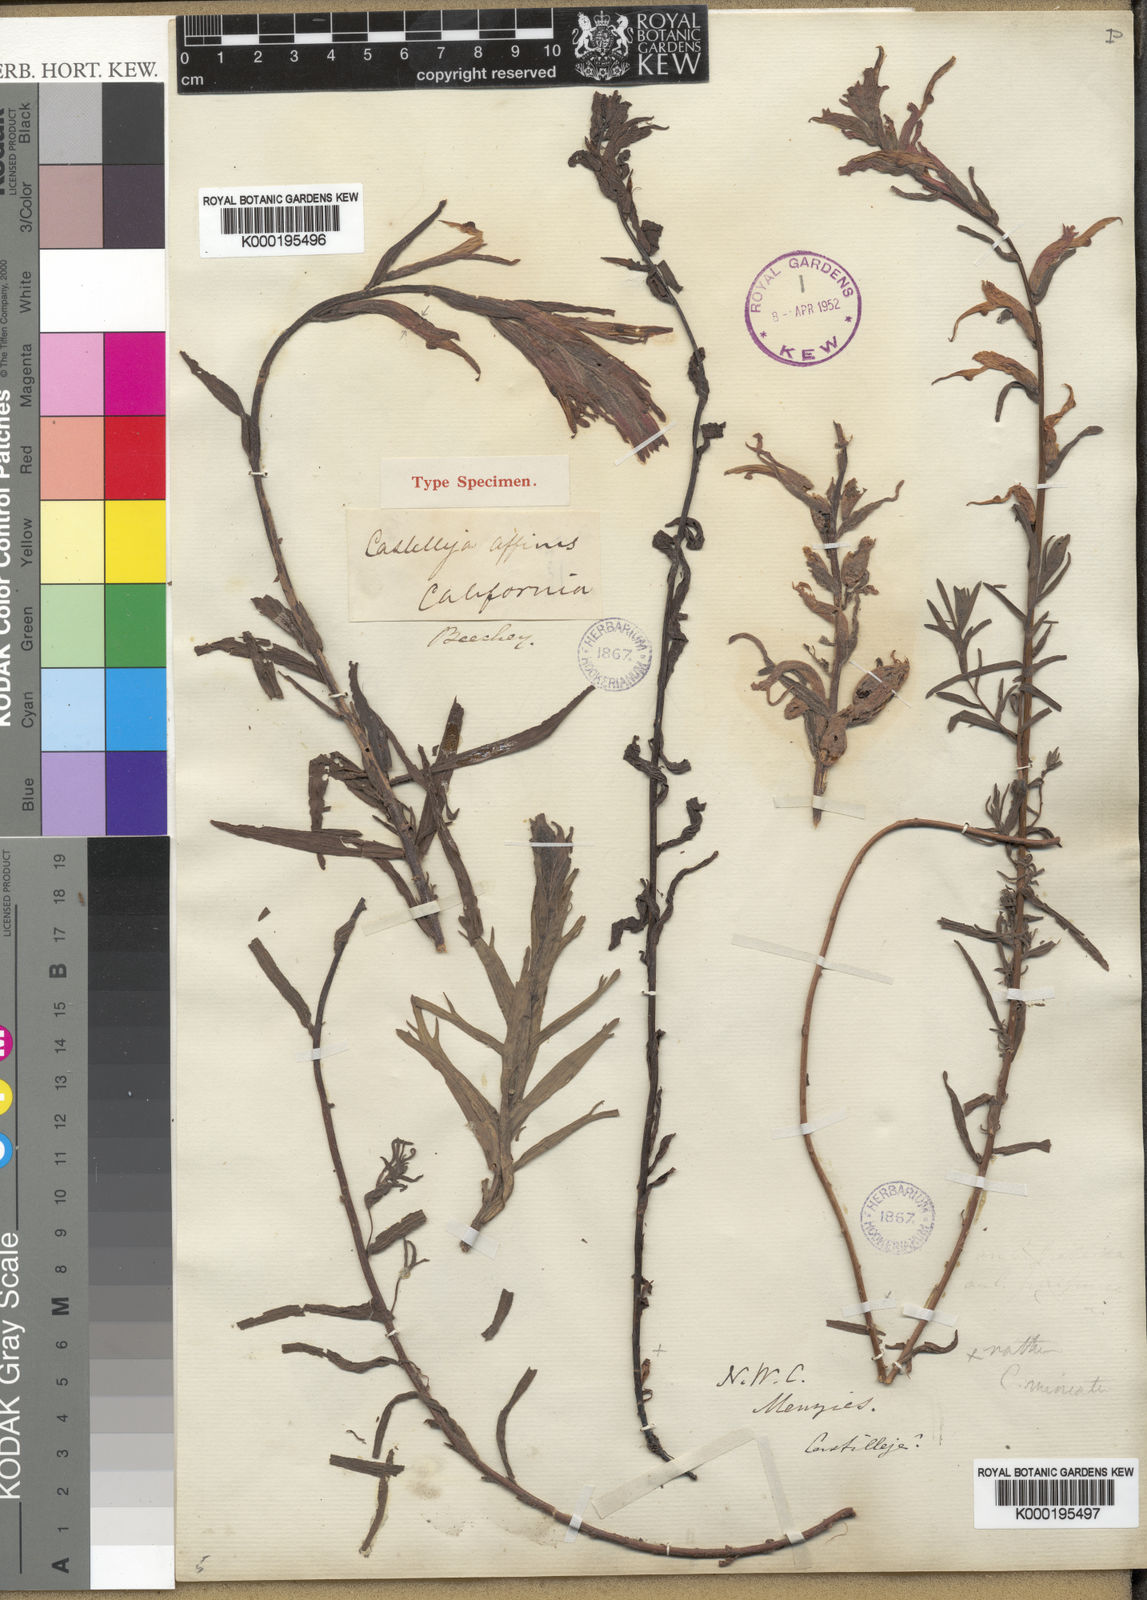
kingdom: Plantae
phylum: Tracheophyta
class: Magnoliopsida
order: Lamiales
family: Orobanchaceae
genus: Castilleja
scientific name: Castilleja affinis
